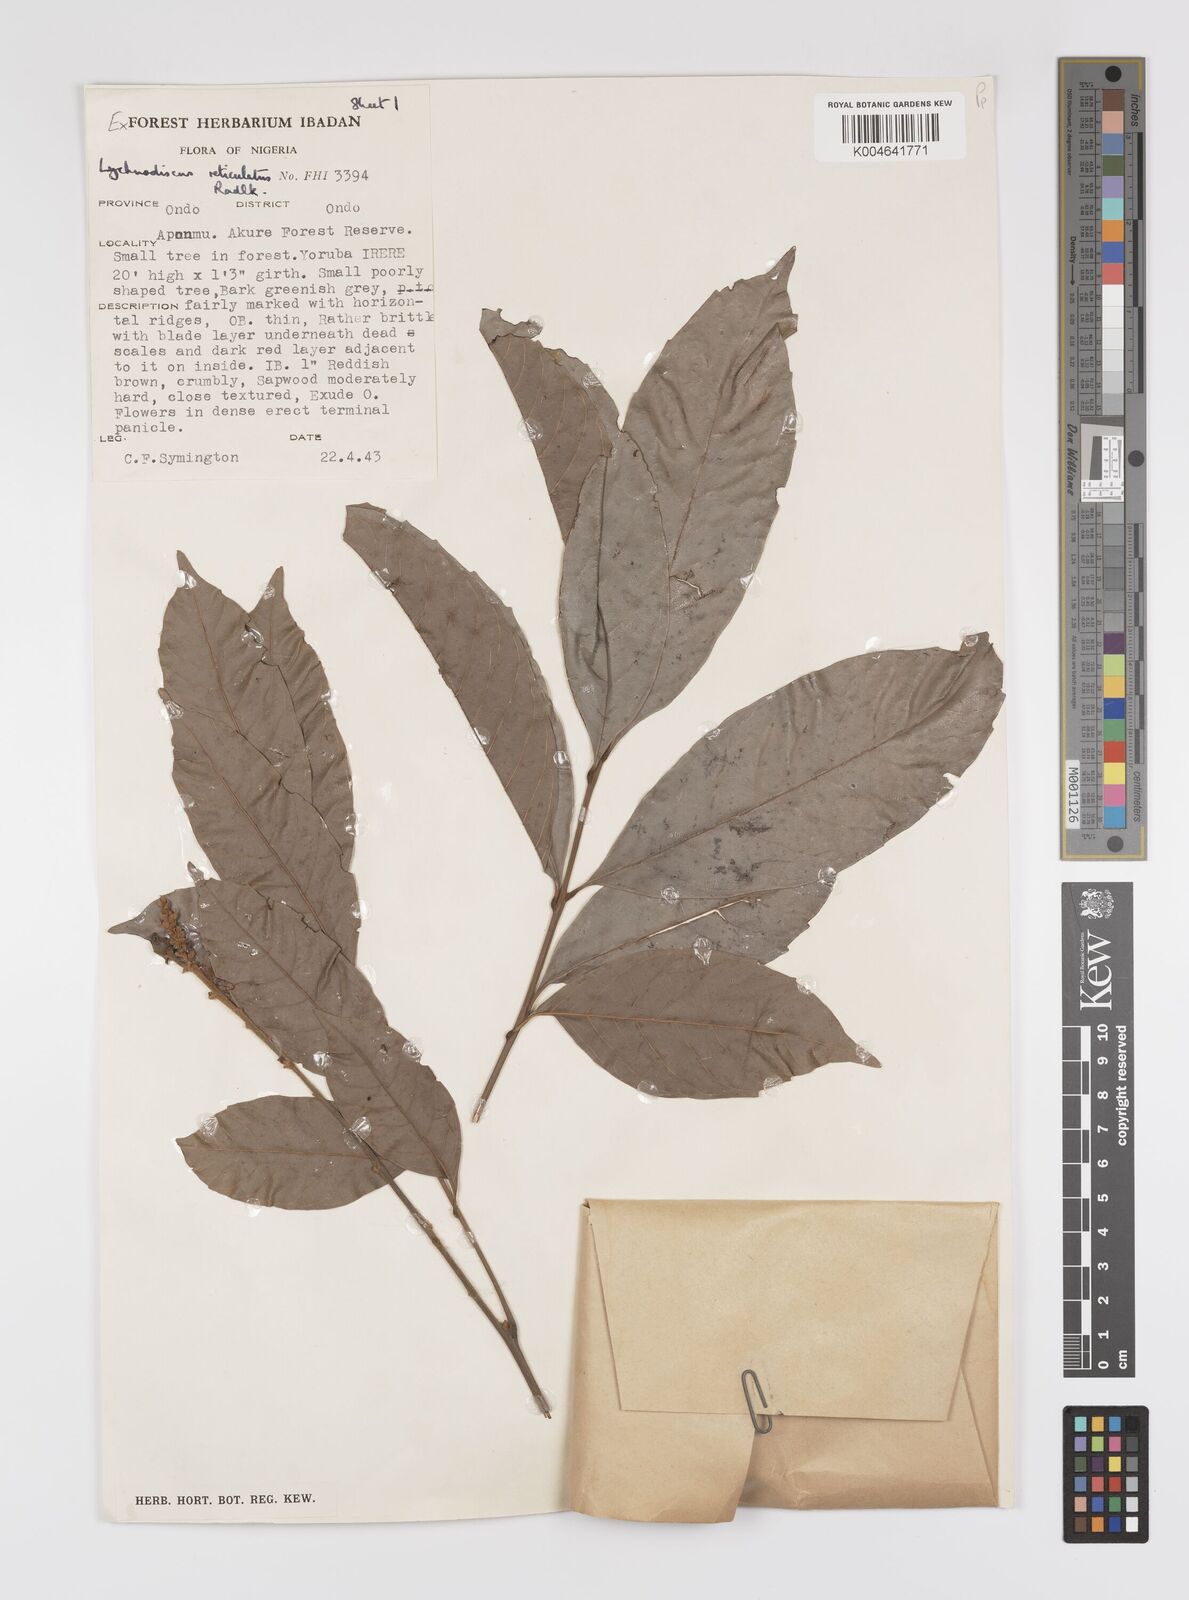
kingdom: Plantae
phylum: Tracheophyta
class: Magnoliopsida
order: Sapindales
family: Sapindaceae
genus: Lychnodiscus
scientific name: Lychnodiscus reticulatus
